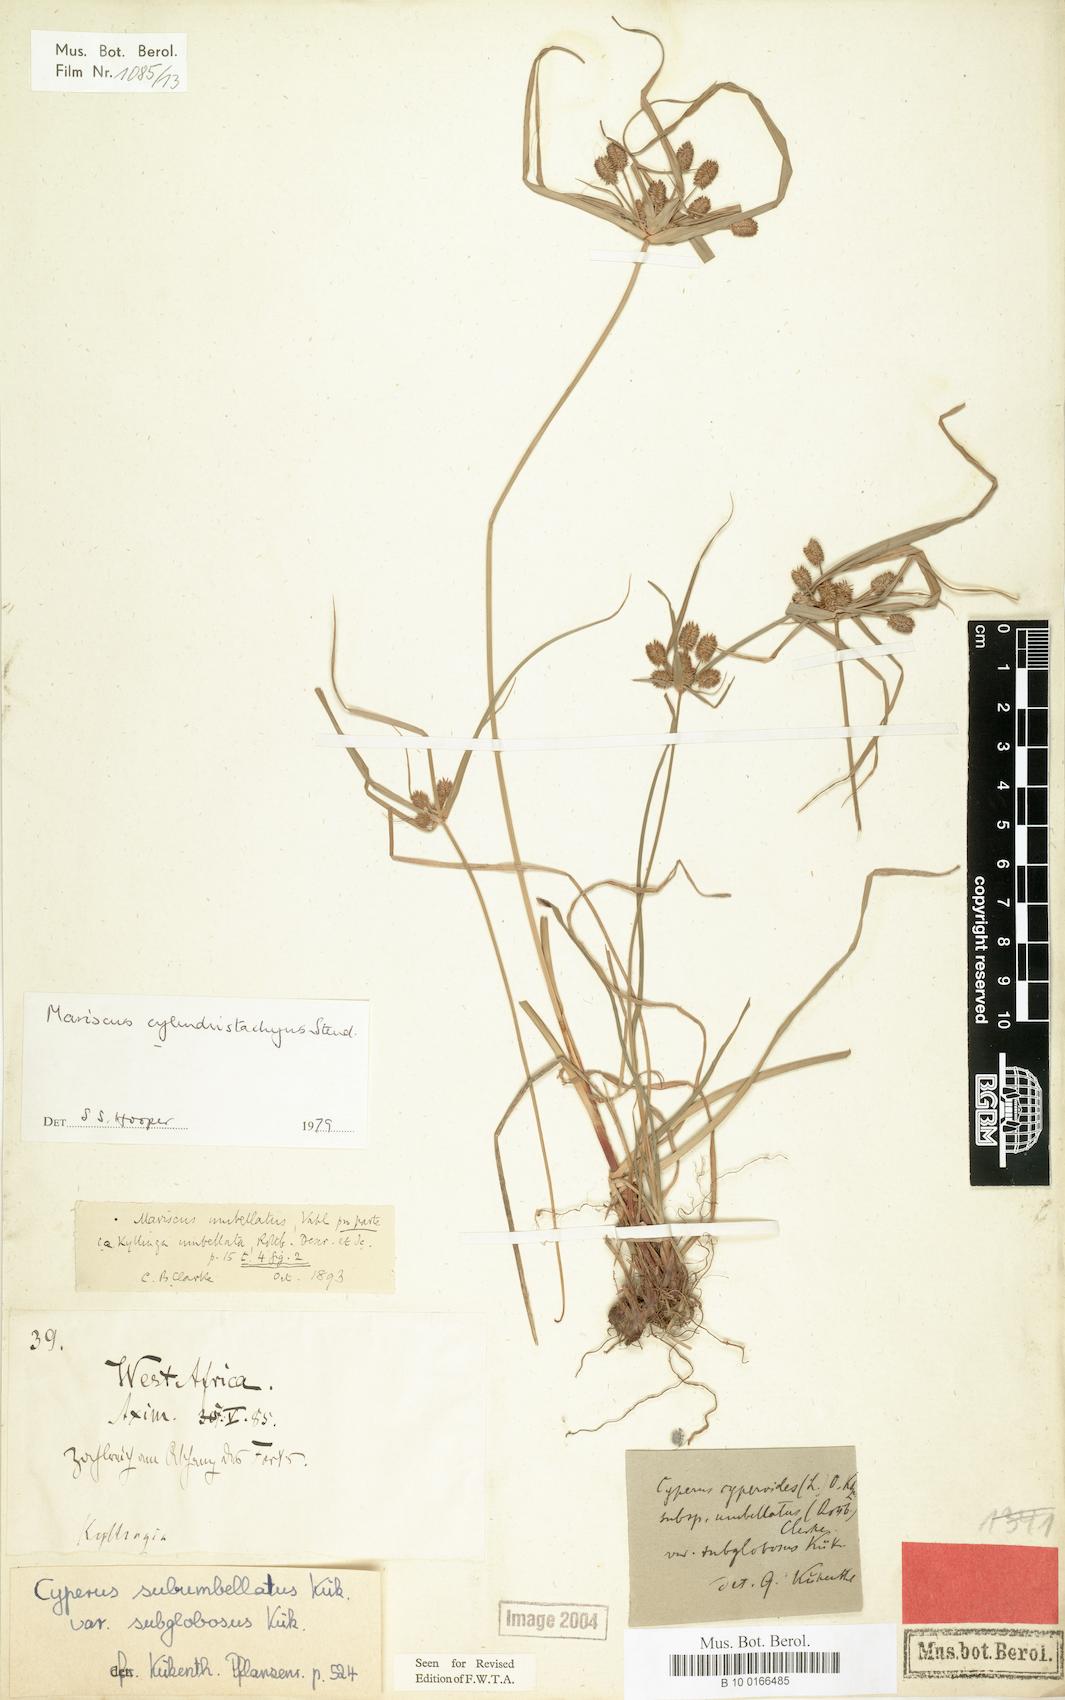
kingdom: Plantae
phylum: Tracheophyta
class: Liliopsida
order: Poales
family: Cyperaceae
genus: Cyperus
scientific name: Cyperus cyperoides
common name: Pacific island flat sedge
